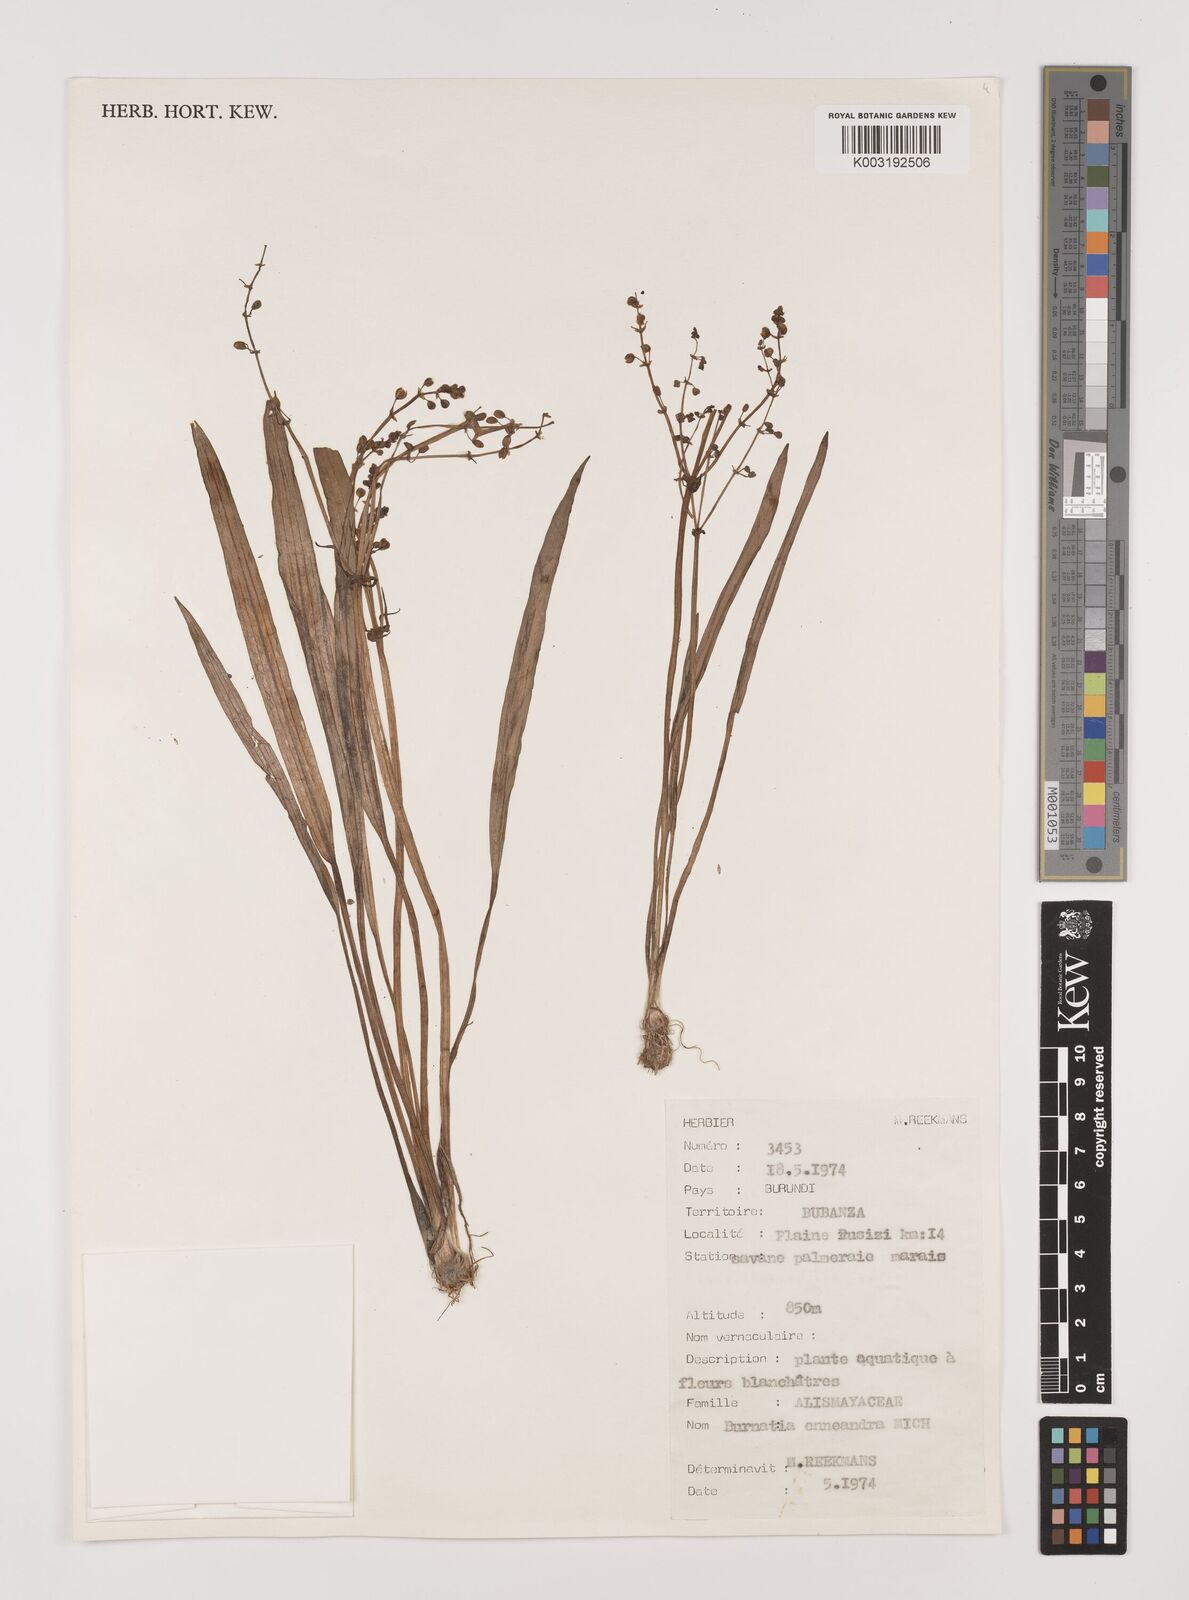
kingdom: Plantae
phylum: Tracheophyta
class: Liliopsida
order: Alismatales
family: Alismataceae
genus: Burnatia
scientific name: Burnatia enneandra
